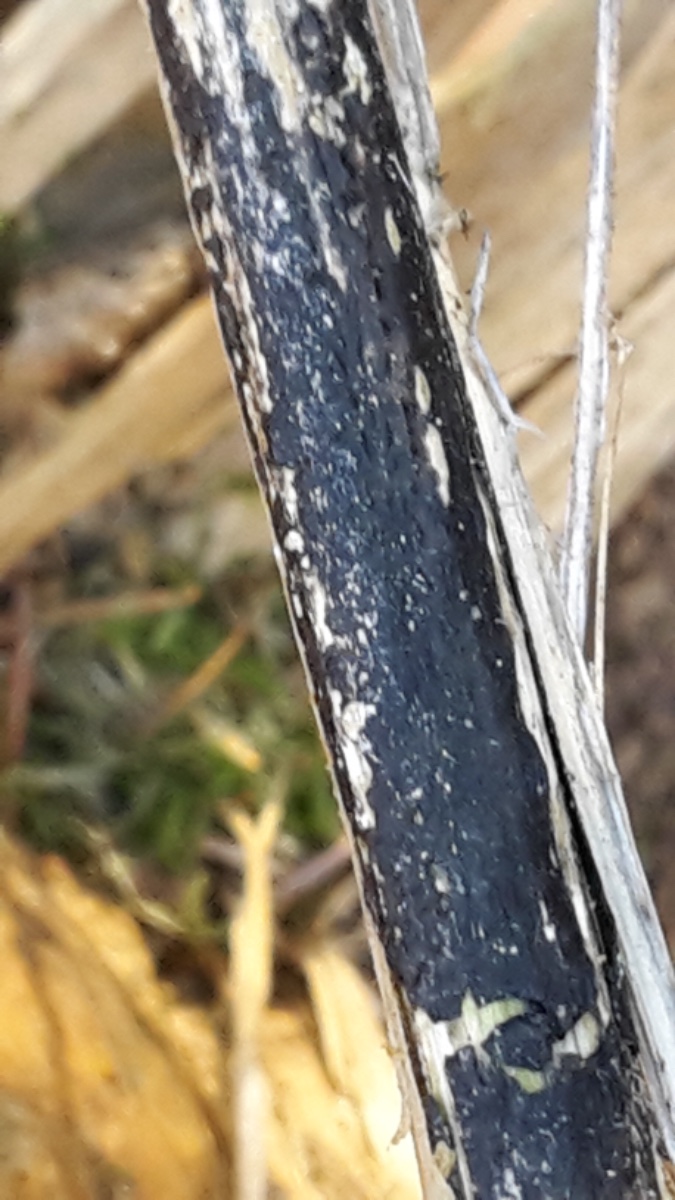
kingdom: Fungi
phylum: Ascomycota
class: Sordariomycetes
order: Diaporthales
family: Diaporthaceae
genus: Diaporthopsis
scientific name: Diaporthopsis urticae
